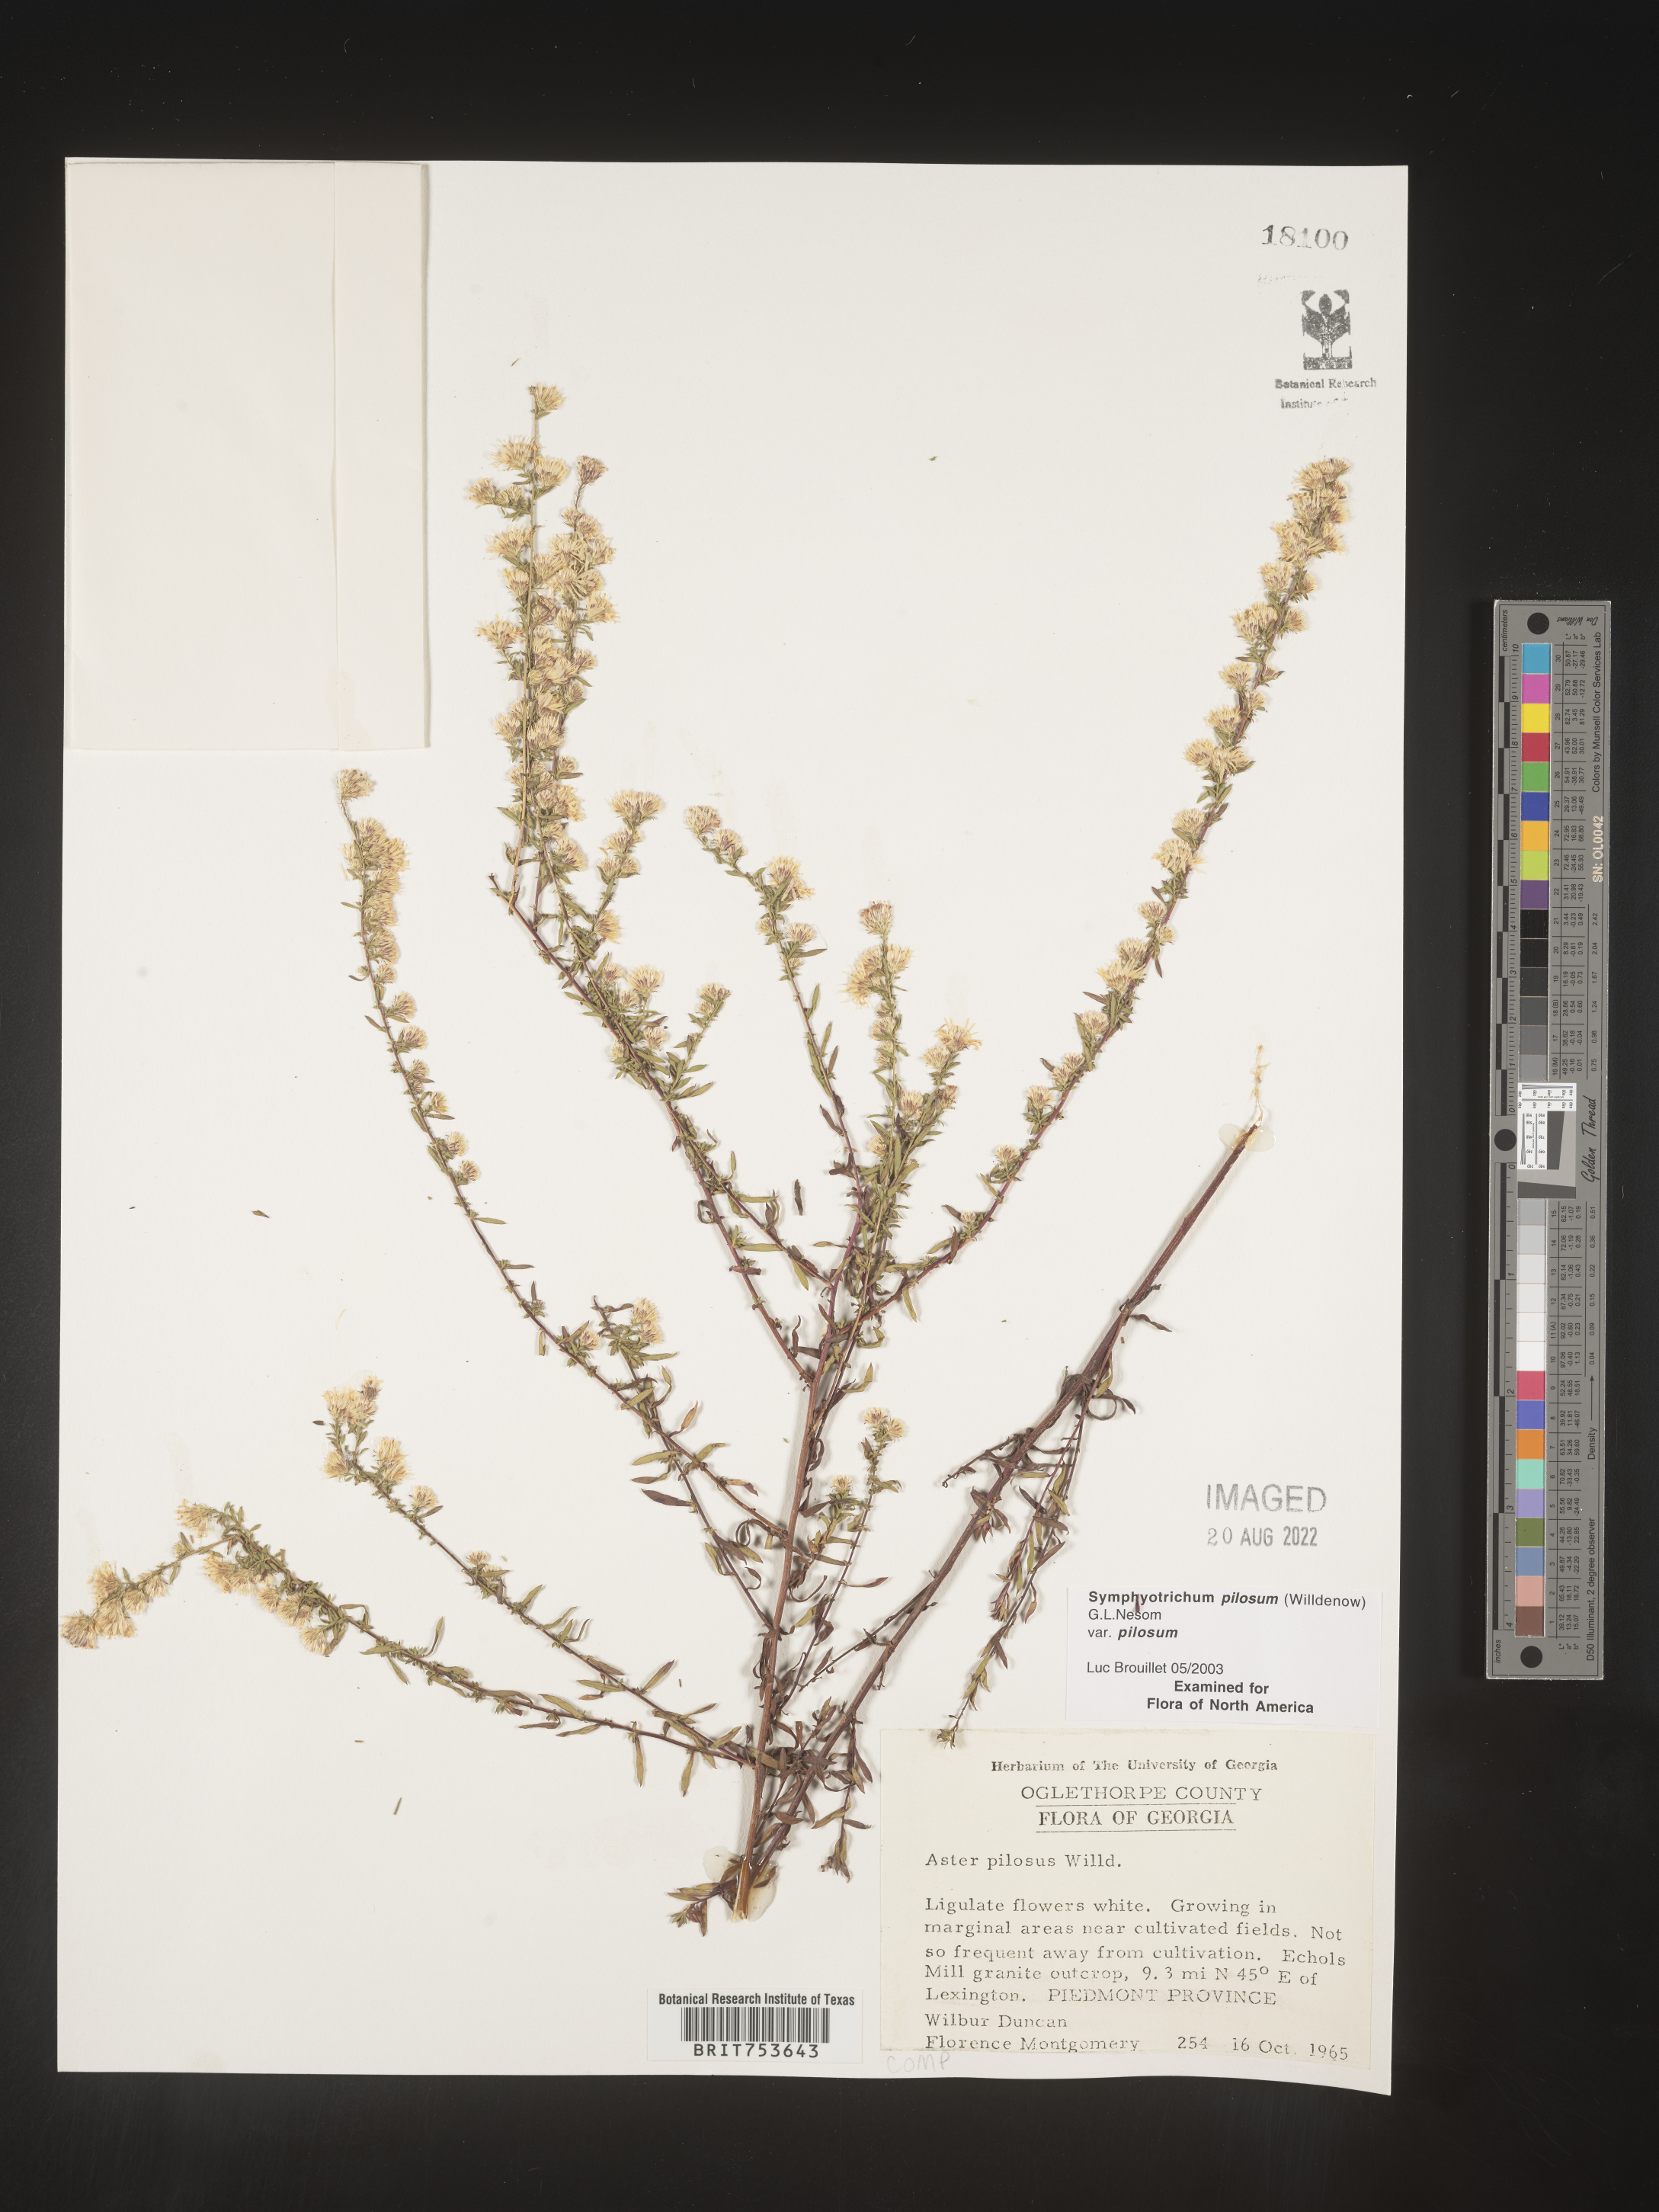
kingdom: Plantae
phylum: Tracheophyta
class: Magnoliopsida
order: Asterales
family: Asteraceae
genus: Symphyotrichum
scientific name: Symphyotrichum pilosum
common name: Awl aster
